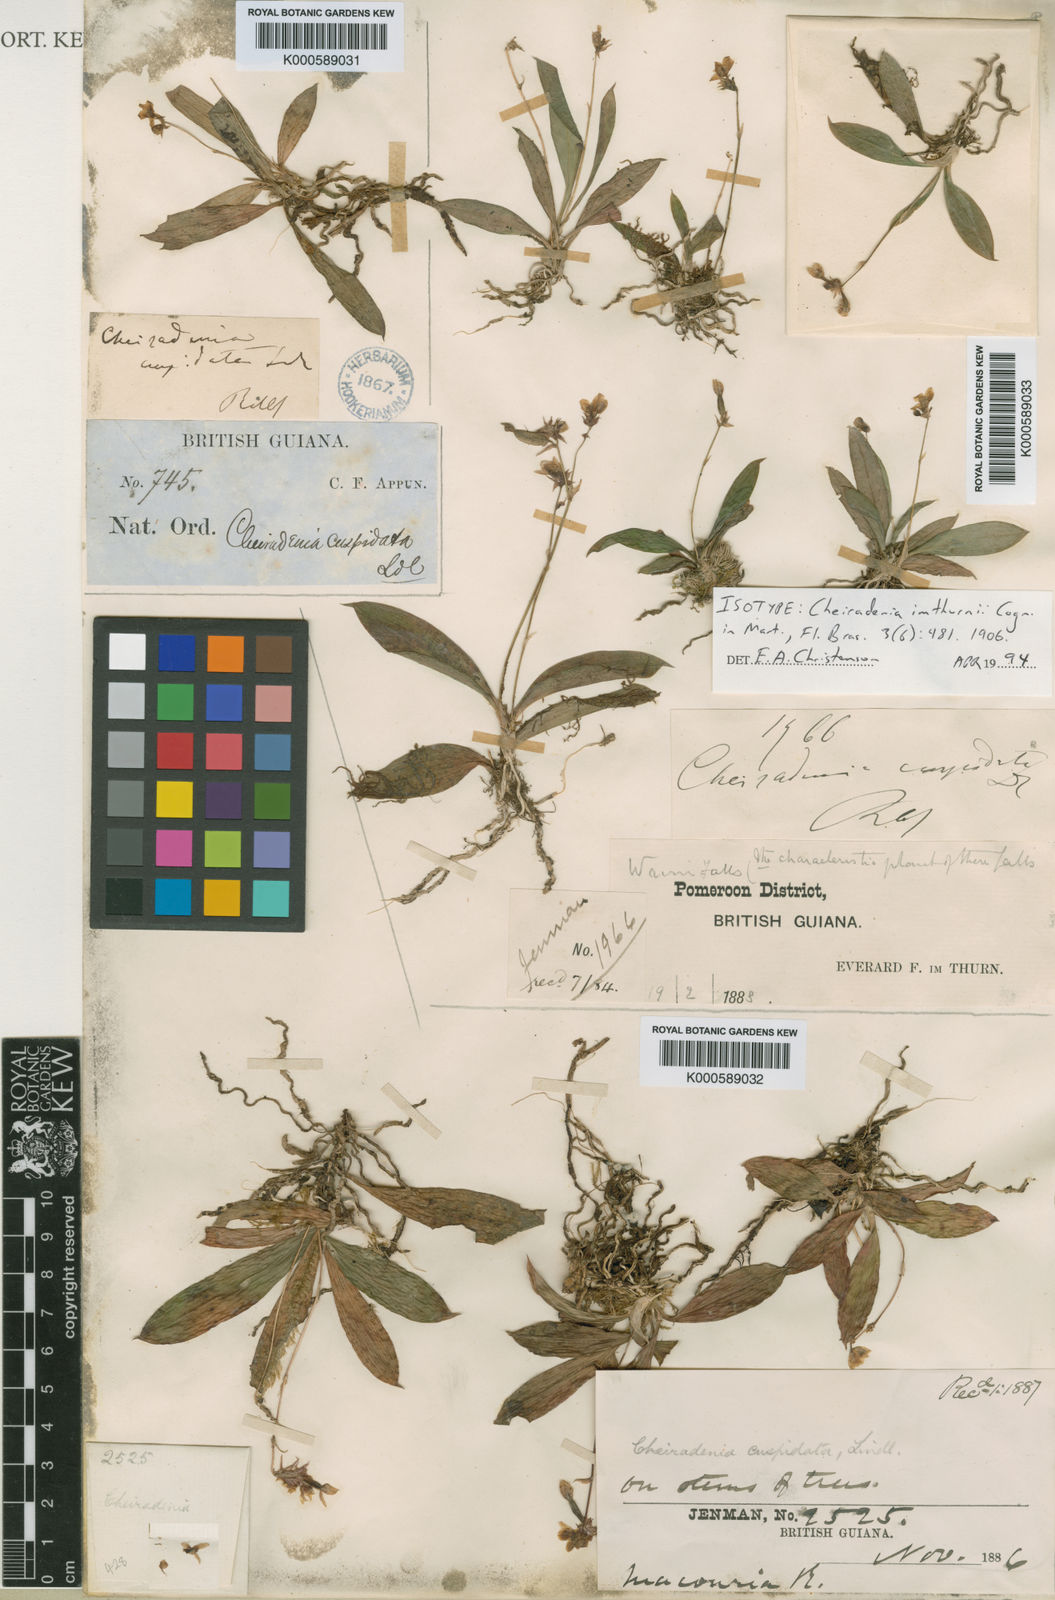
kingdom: Plantae
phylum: Tracheophyta
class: Liliopsida
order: Asparagales
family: Orchidaceae
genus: Cheiradenia
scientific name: Cheiradenia cuspidata
